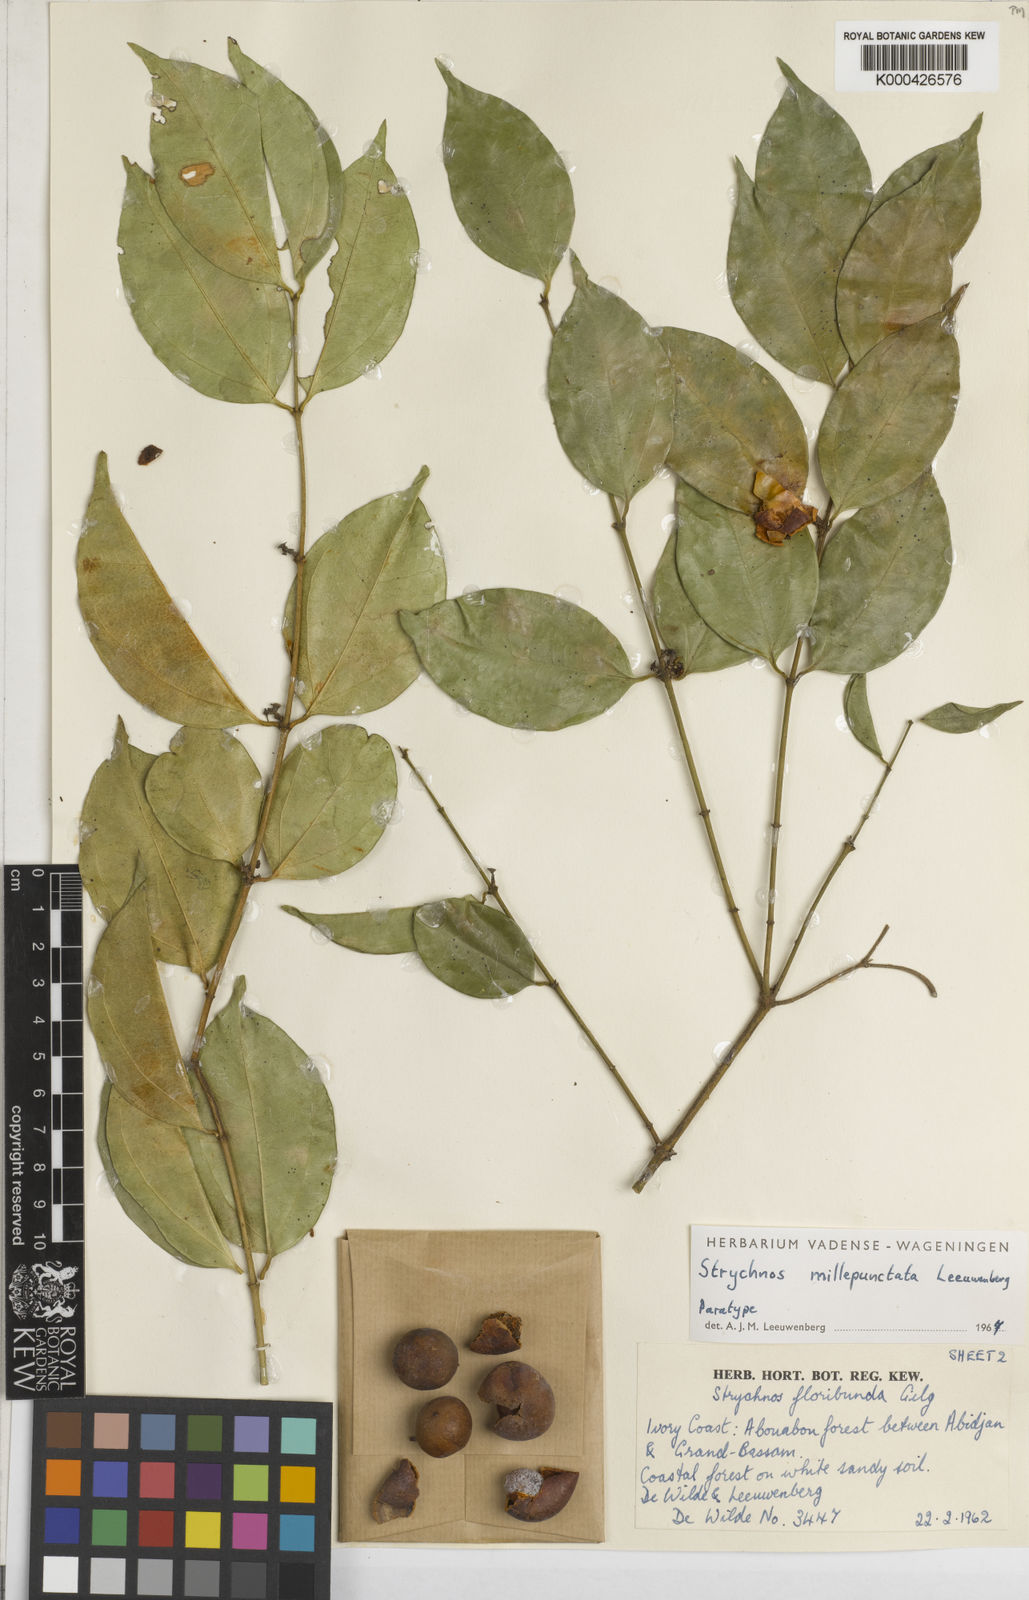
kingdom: Plantae
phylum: Tracheophyta
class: Magnoliopsida
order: Gentianales
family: Loganiaceae
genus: Strychnos
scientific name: Strychnos millepunctata
